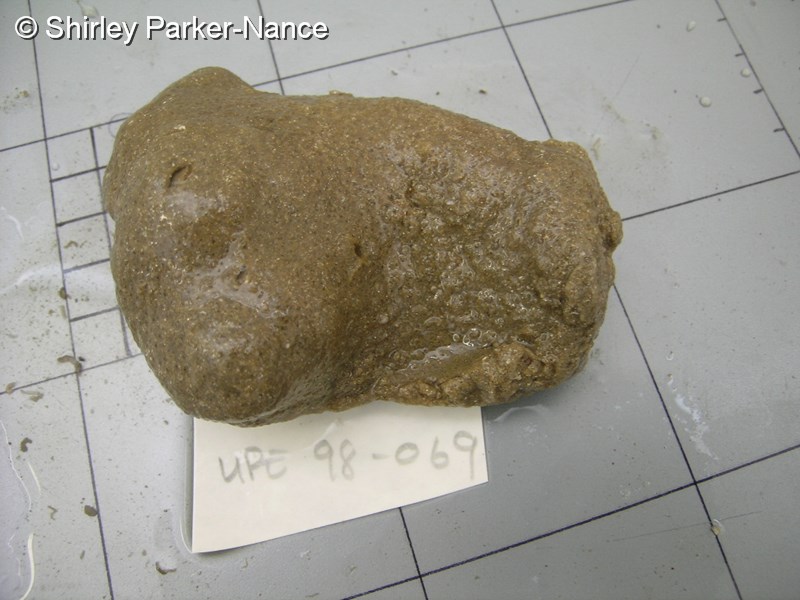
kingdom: Animalia
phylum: Chordata
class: Ascidiacea
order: Aplousobranchia
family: Polyclinidae
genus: Aplidium
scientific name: Aplidium
